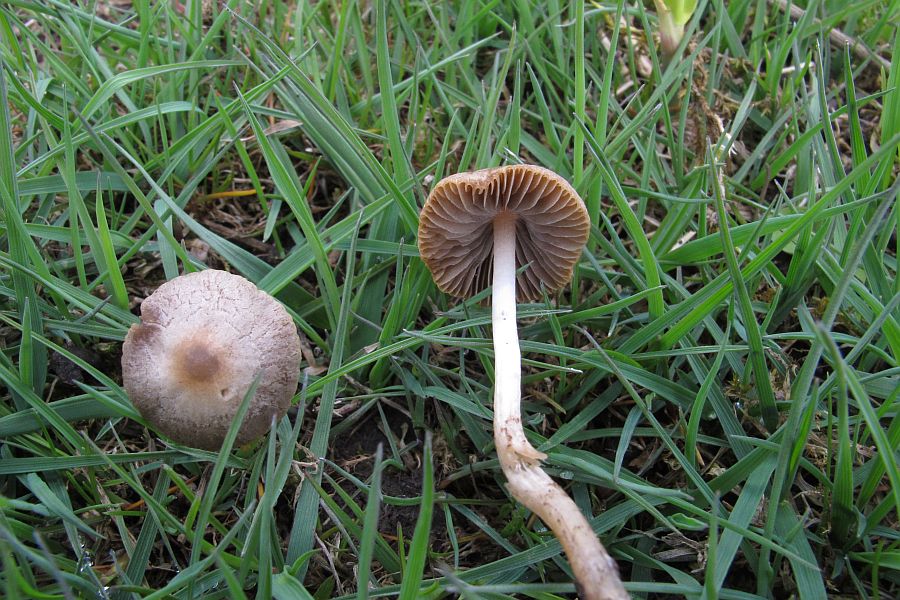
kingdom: Fungi
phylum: Basidiomycota
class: Agaricomycetes
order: Agaricales
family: Psathyrellaceae
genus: Psathyrella
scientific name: Psathyrella panaeoloides
